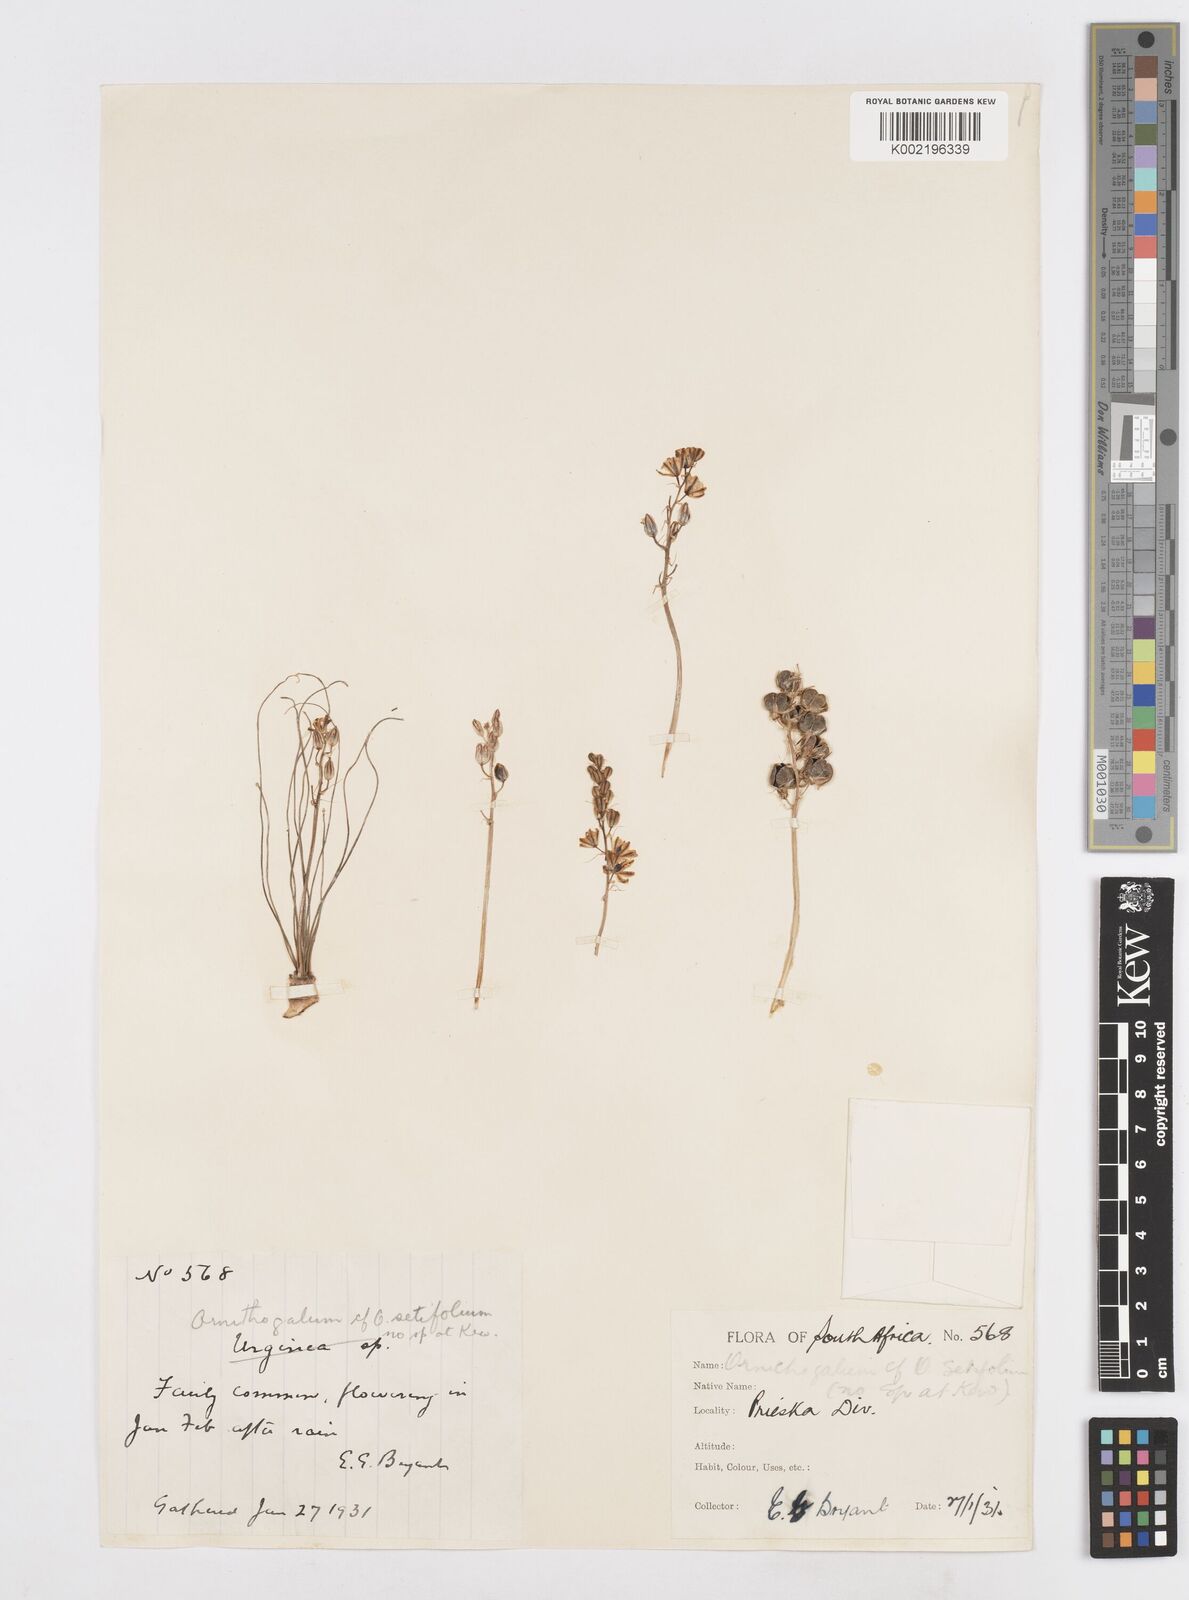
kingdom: Plantae
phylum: Tracheophyta
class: Liliopsida
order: Asparagales
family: Asparagaceae
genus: Ornithogalum
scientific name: Ornithogalum juncifolium
